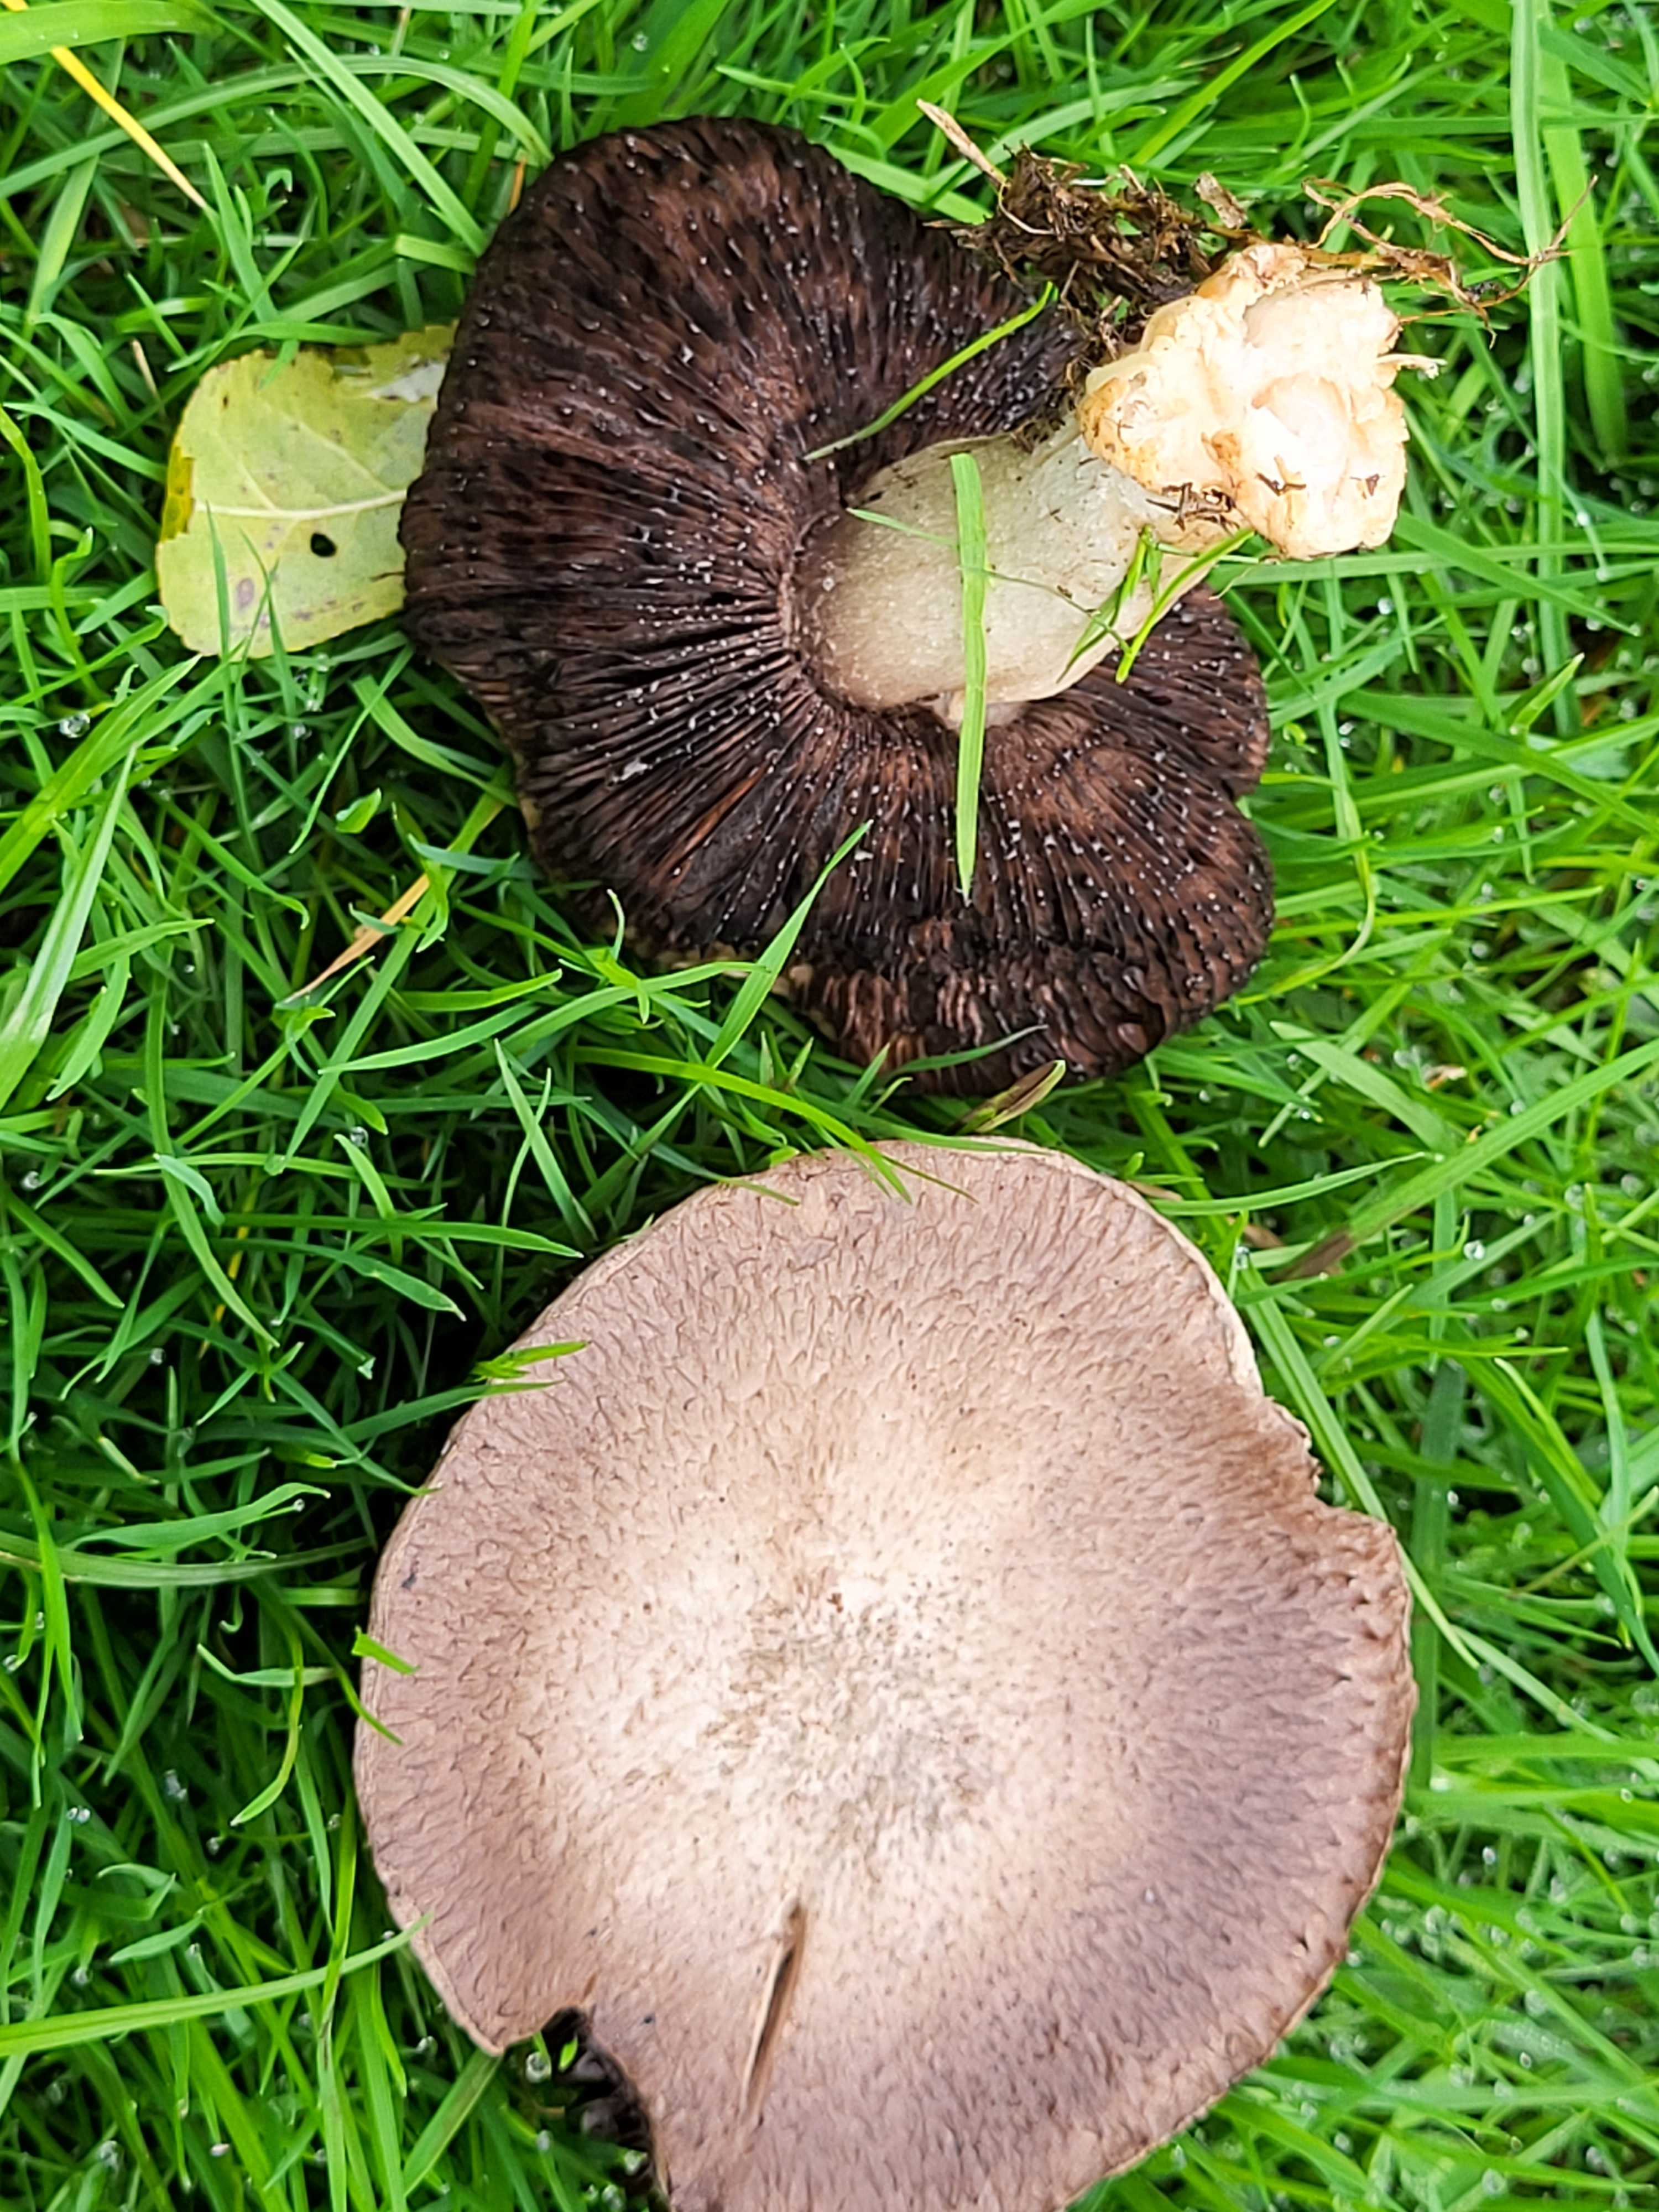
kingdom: Fungi
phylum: Basidiomycota
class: Agaricomycetes
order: Agaricales
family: Agaricaceae
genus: Agaricus
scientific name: Agaricus
